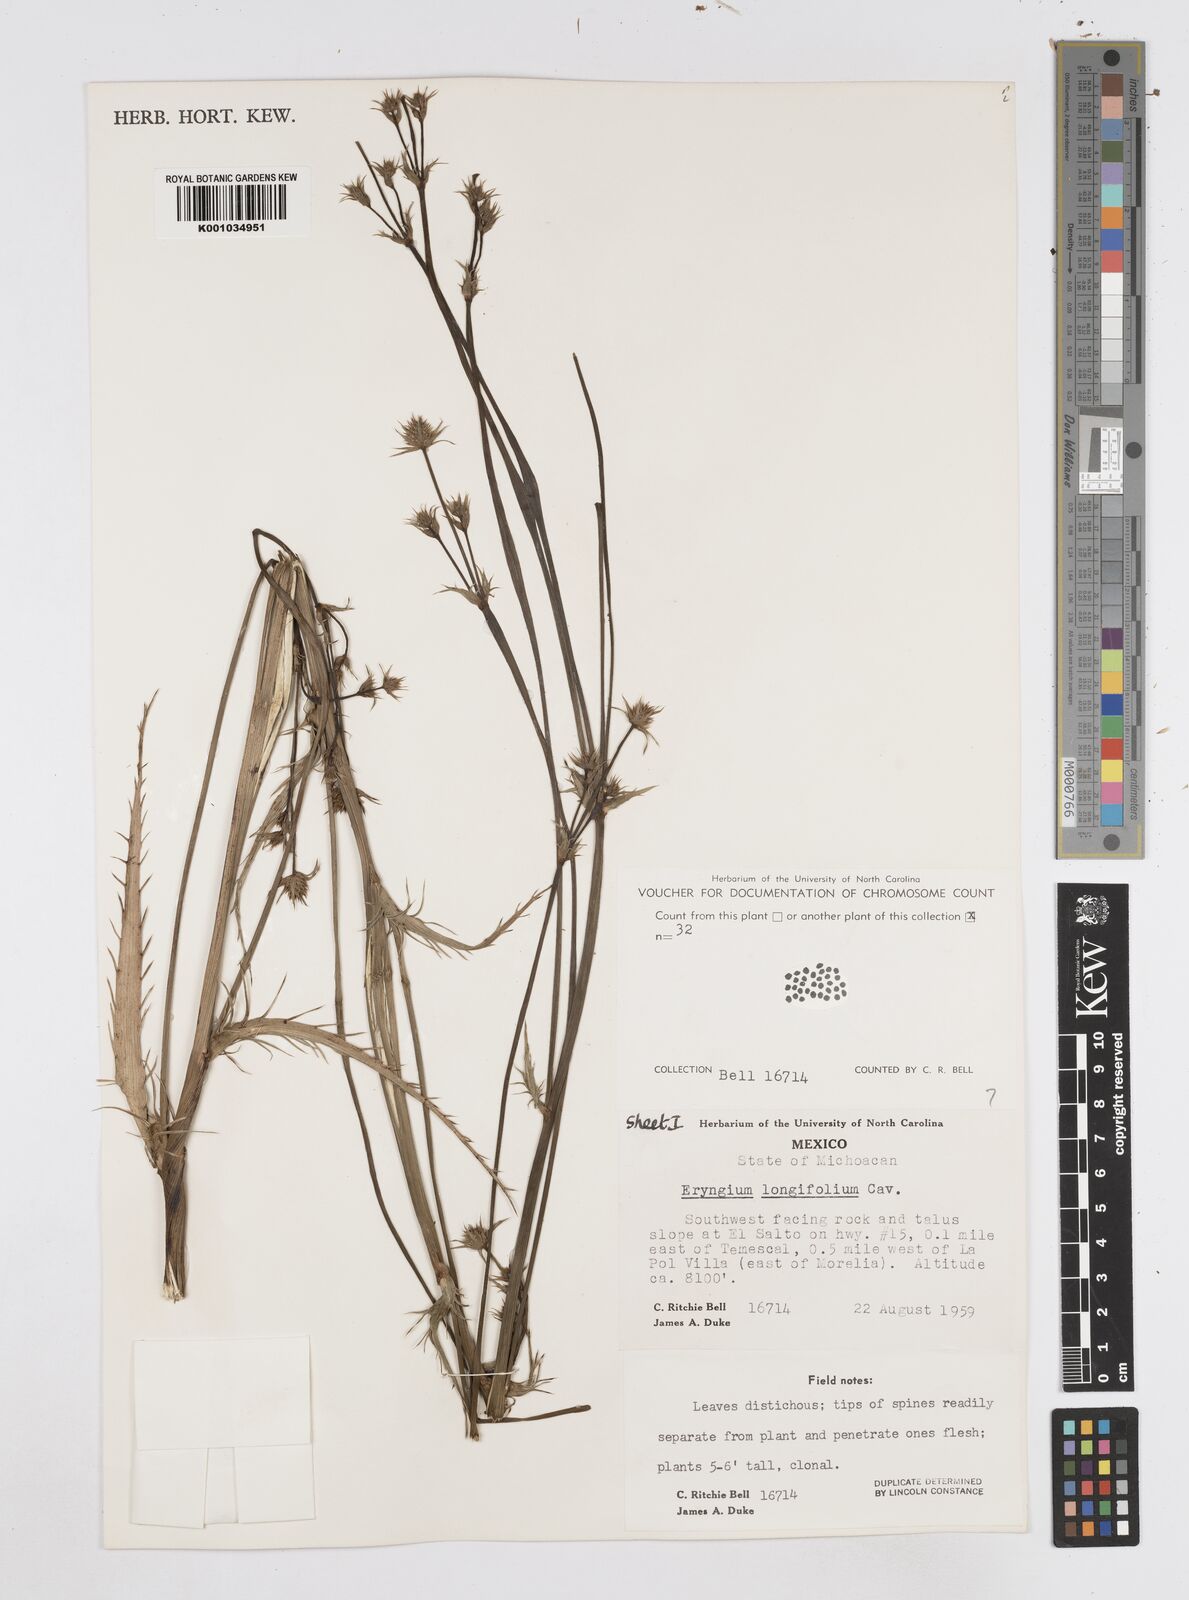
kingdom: Plantae
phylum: Tracheophyta
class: Magnoliopsida
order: Apiales
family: Apiaceae
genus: Eryngium
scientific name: Eryngium longifolium
